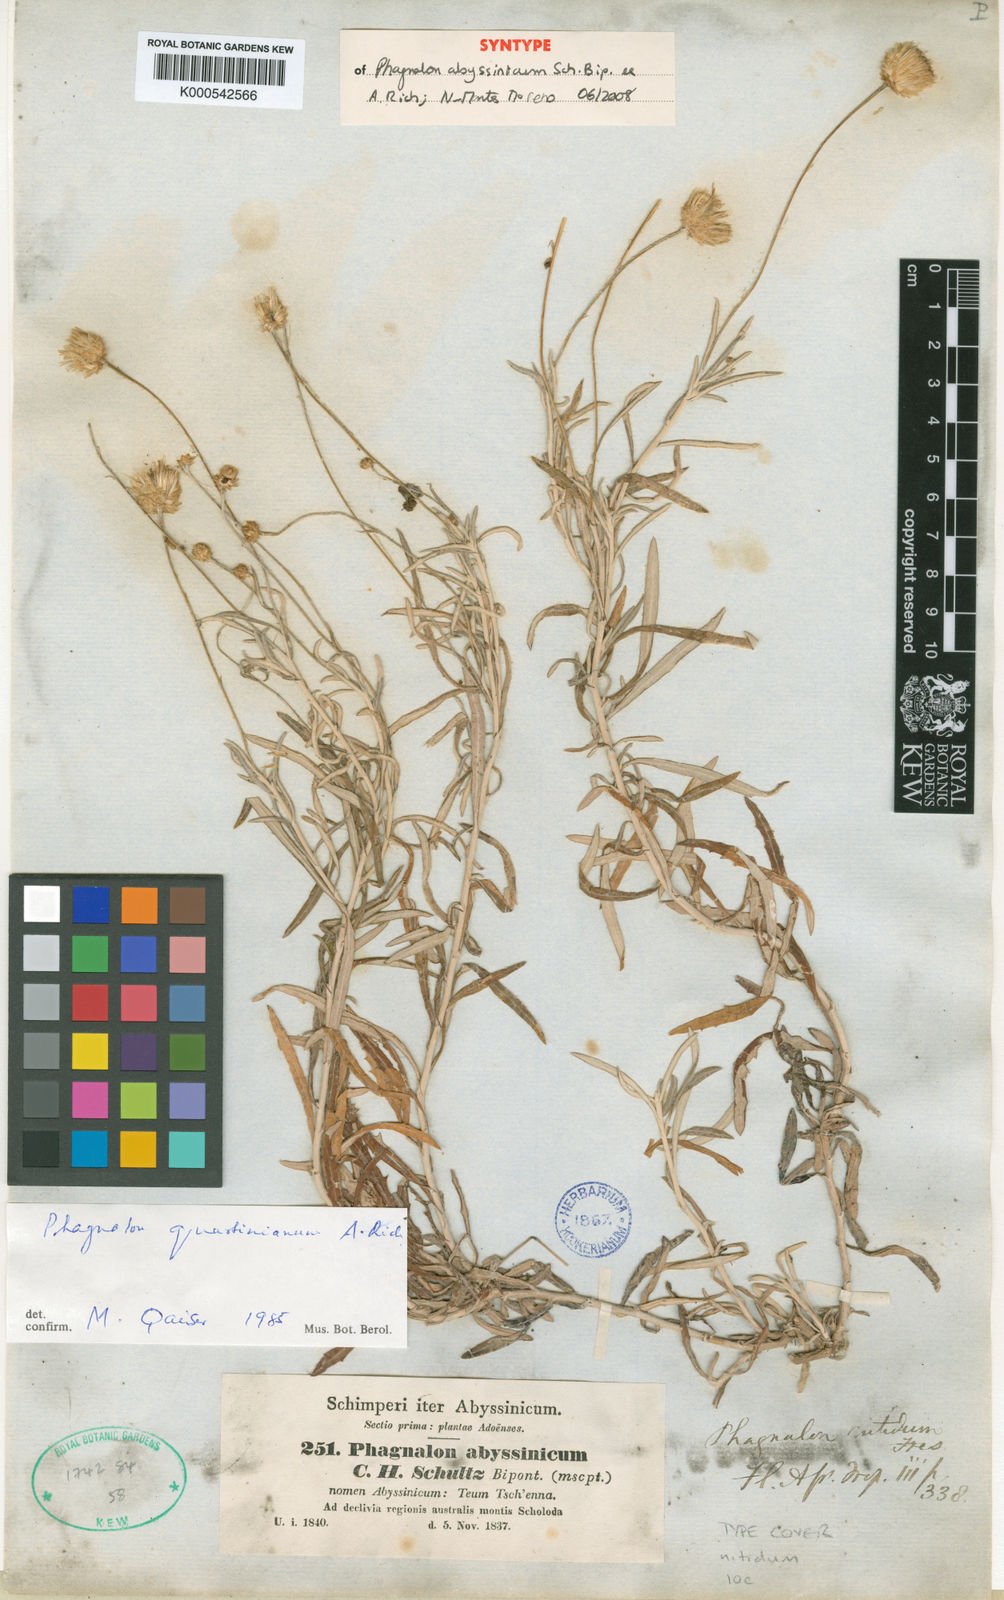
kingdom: Plantae
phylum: Tracheophyta
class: Magnoliopsida
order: Asterales
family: Asteraceae
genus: Phagnalon
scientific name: Phagnalon
